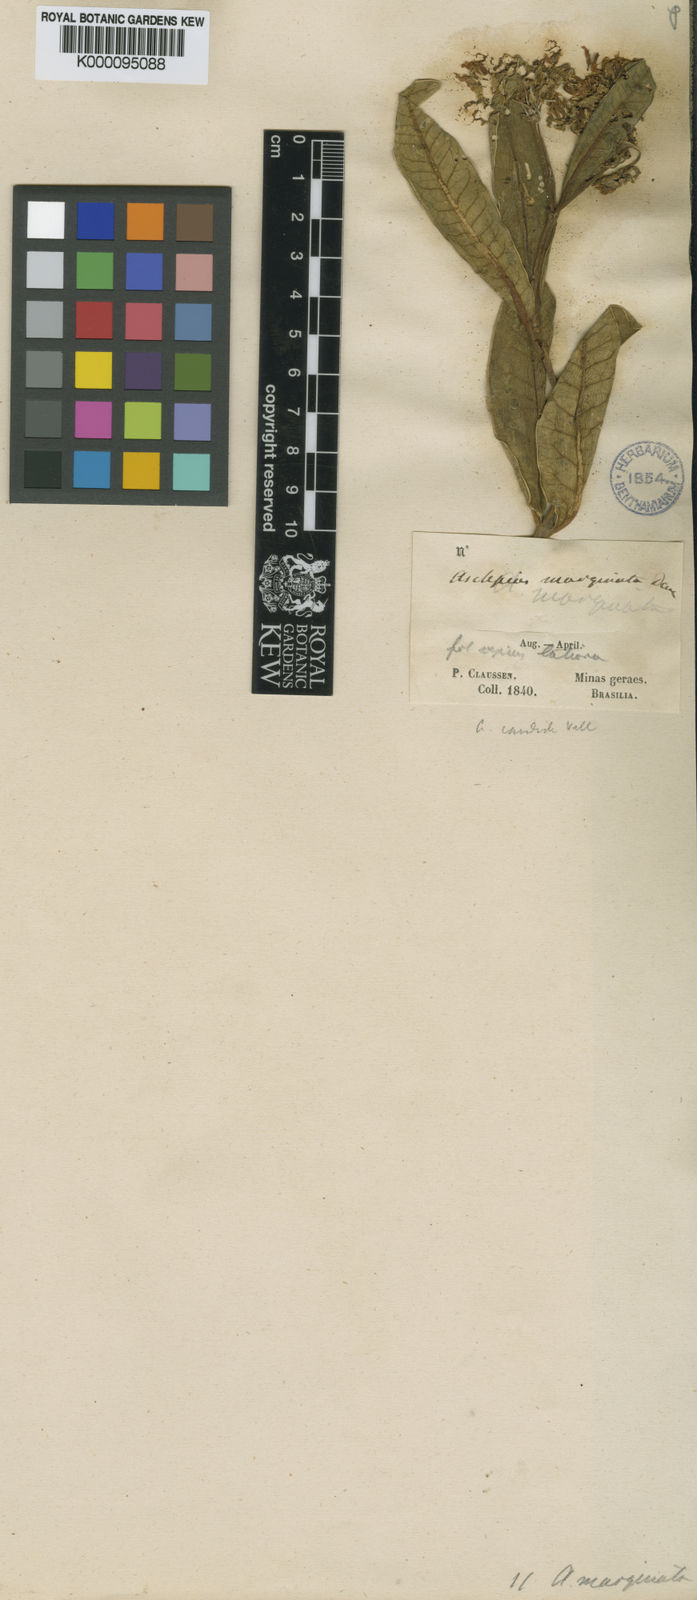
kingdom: Plantae
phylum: Tracheophyta
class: Magnoliopsida
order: Gentianales
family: Apocynaceae
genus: Asclepias
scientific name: Asclepias candida
